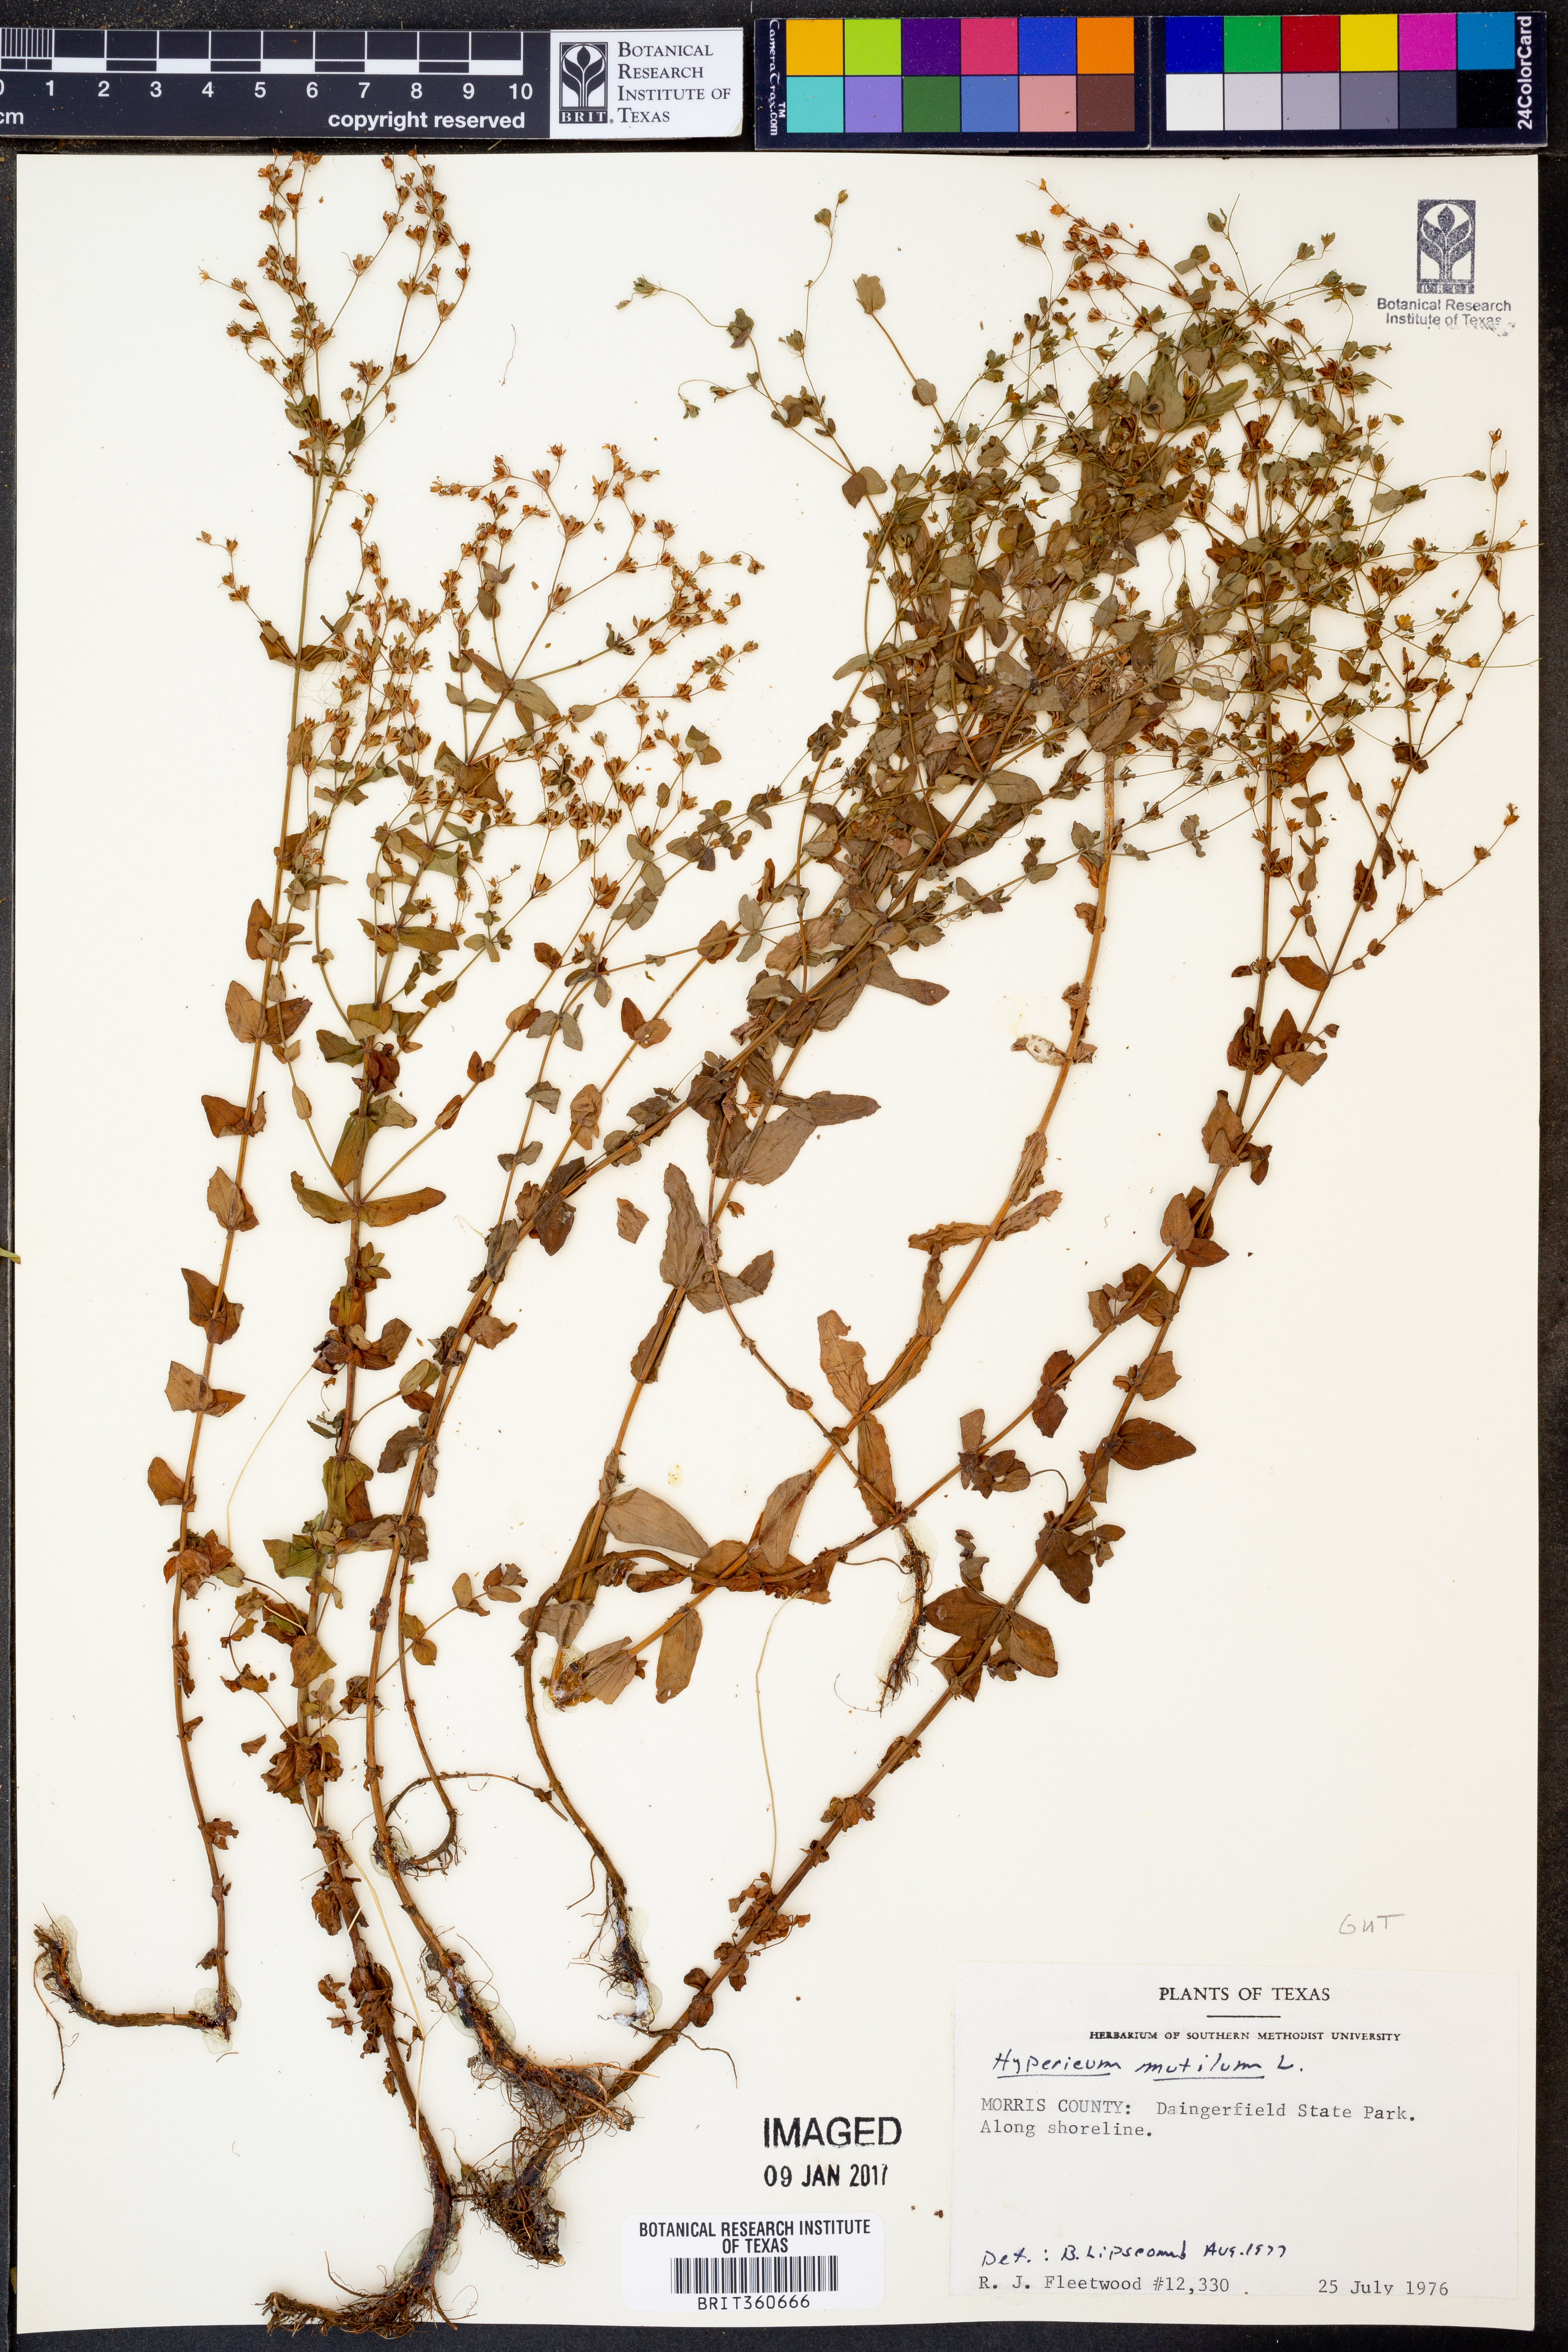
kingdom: Plantae
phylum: Tracheophyta
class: Magnoliopsida
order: Malpighiales
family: Hypericaceae
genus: Hypericum
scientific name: Hypericum mutilum
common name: Dwarf st. john's-wort
